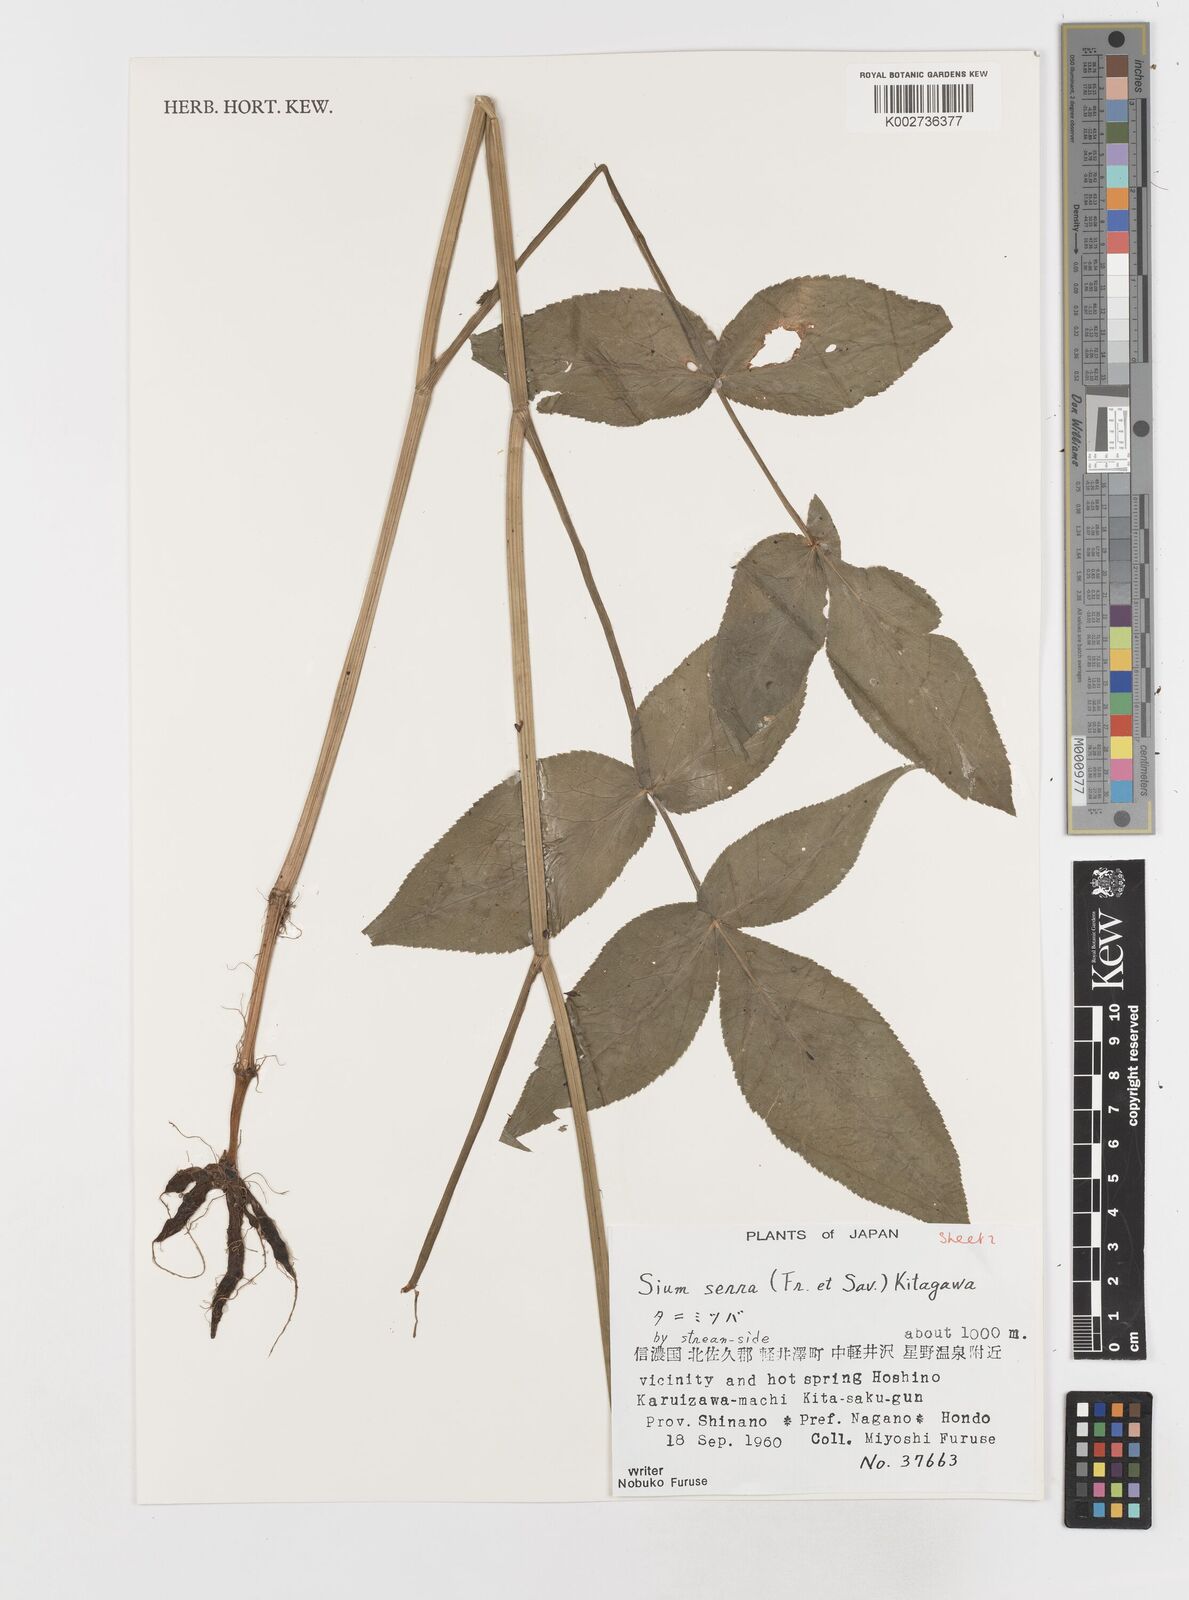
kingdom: Plantae
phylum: Tracheophyta
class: Magnoliopsida
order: Apiales
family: Apiaceae
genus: Sium
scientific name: Sium serra
